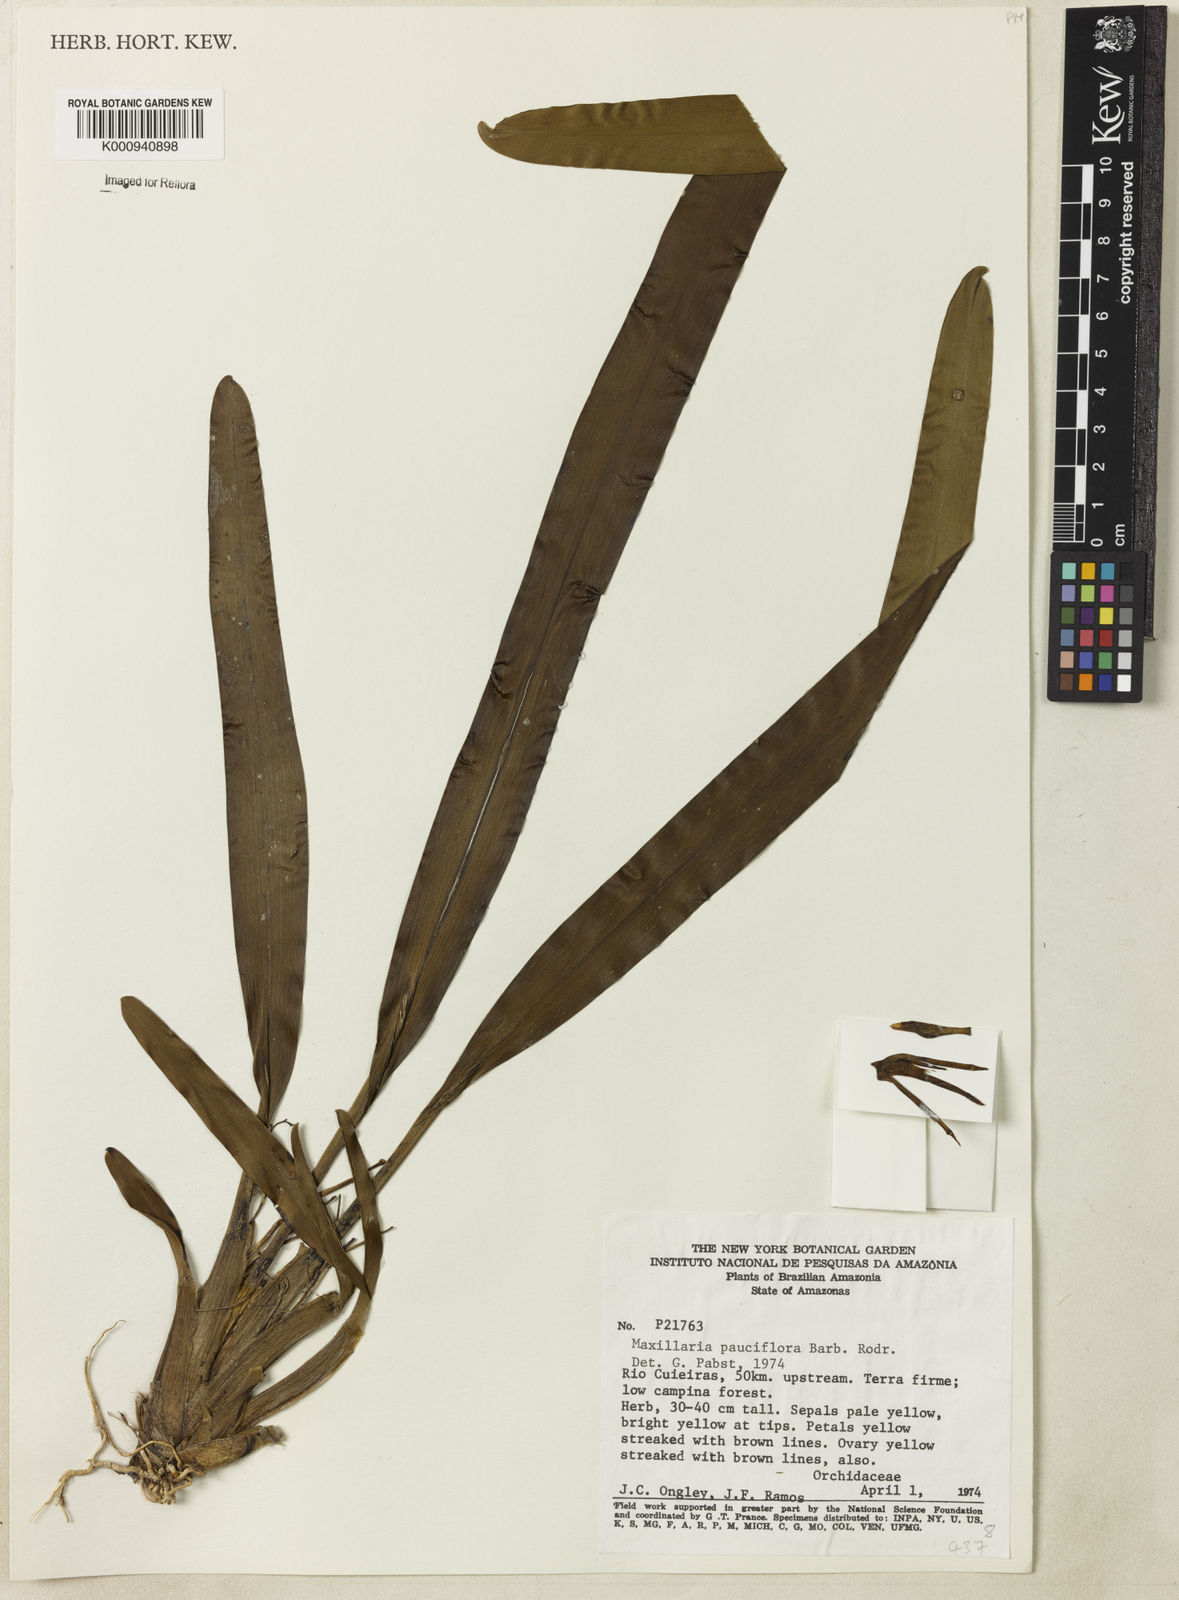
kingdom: Plantae
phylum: Tracheophyta
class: Liliopsida
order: Asparagales
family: Orchidaceae
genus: Maxillaria
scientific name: Maxillaria pauciflora
